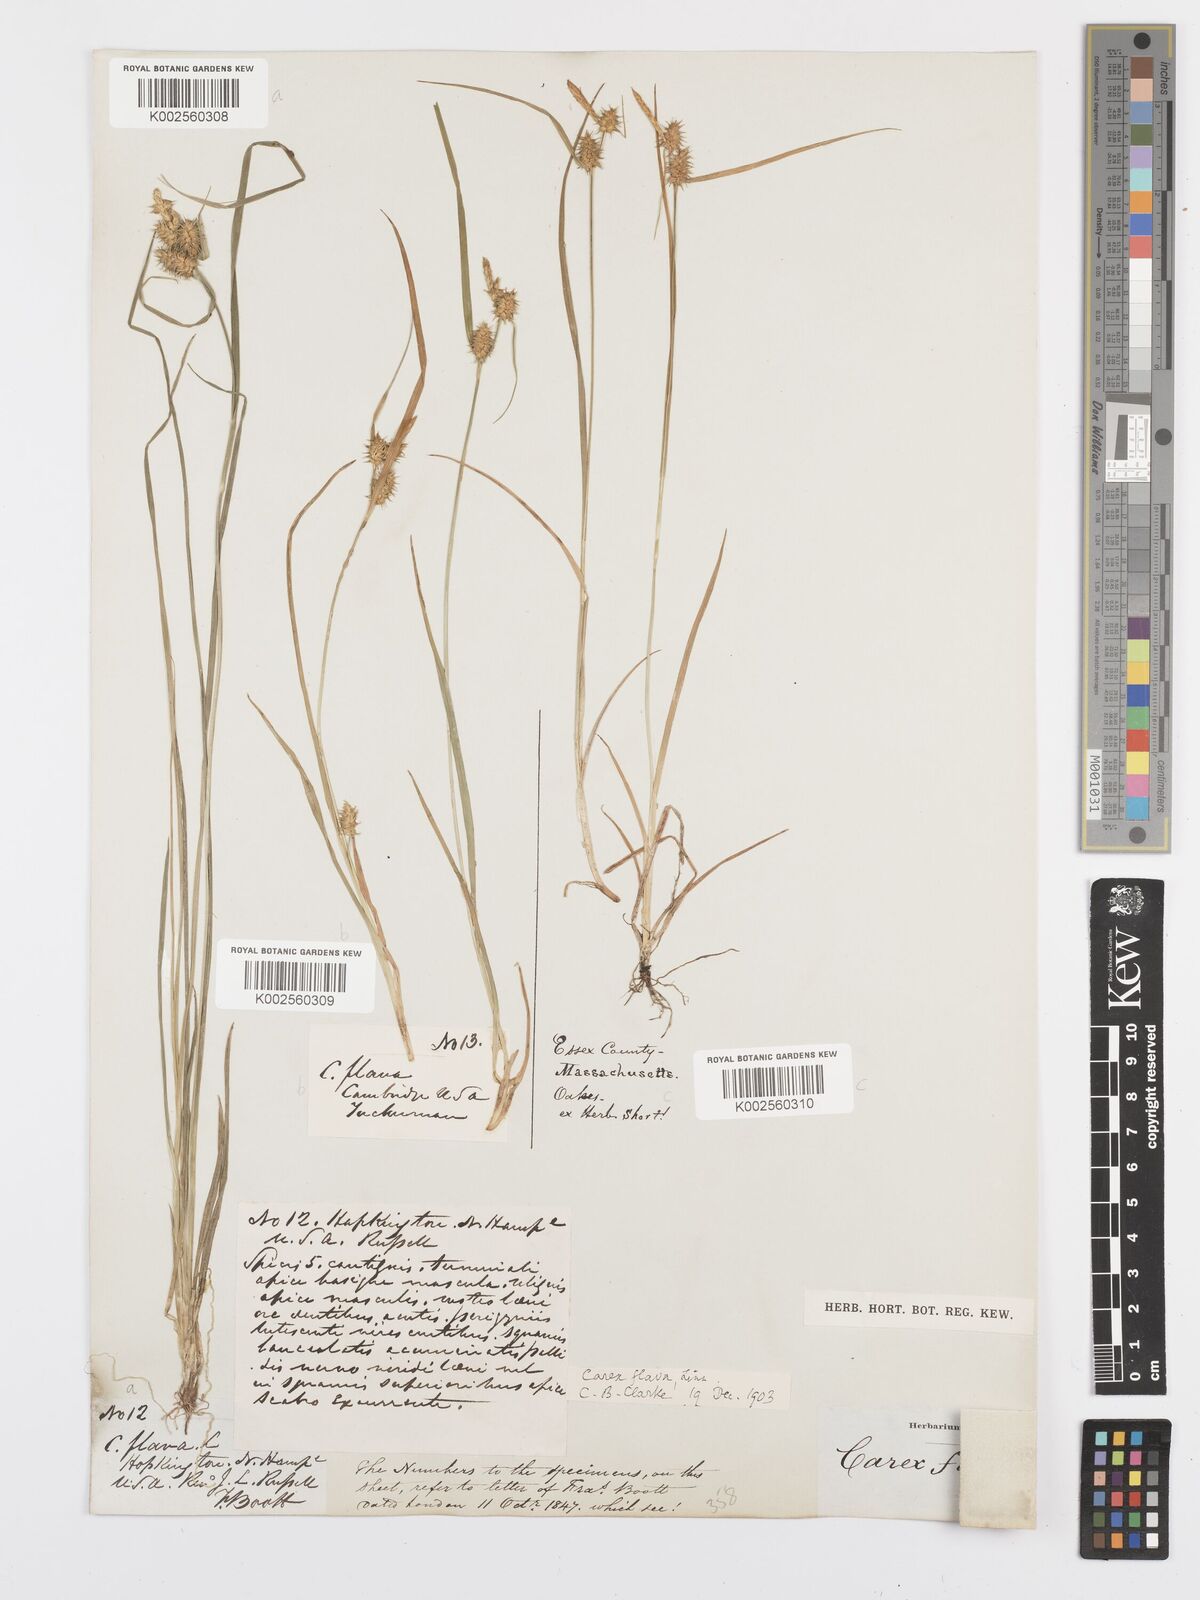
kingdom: Plantae
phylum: Tracheophyta
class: Liliopsida
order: Poales
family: Cyperaceae
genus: Carex
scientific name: Carex flava
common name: Large yellow-sedge
